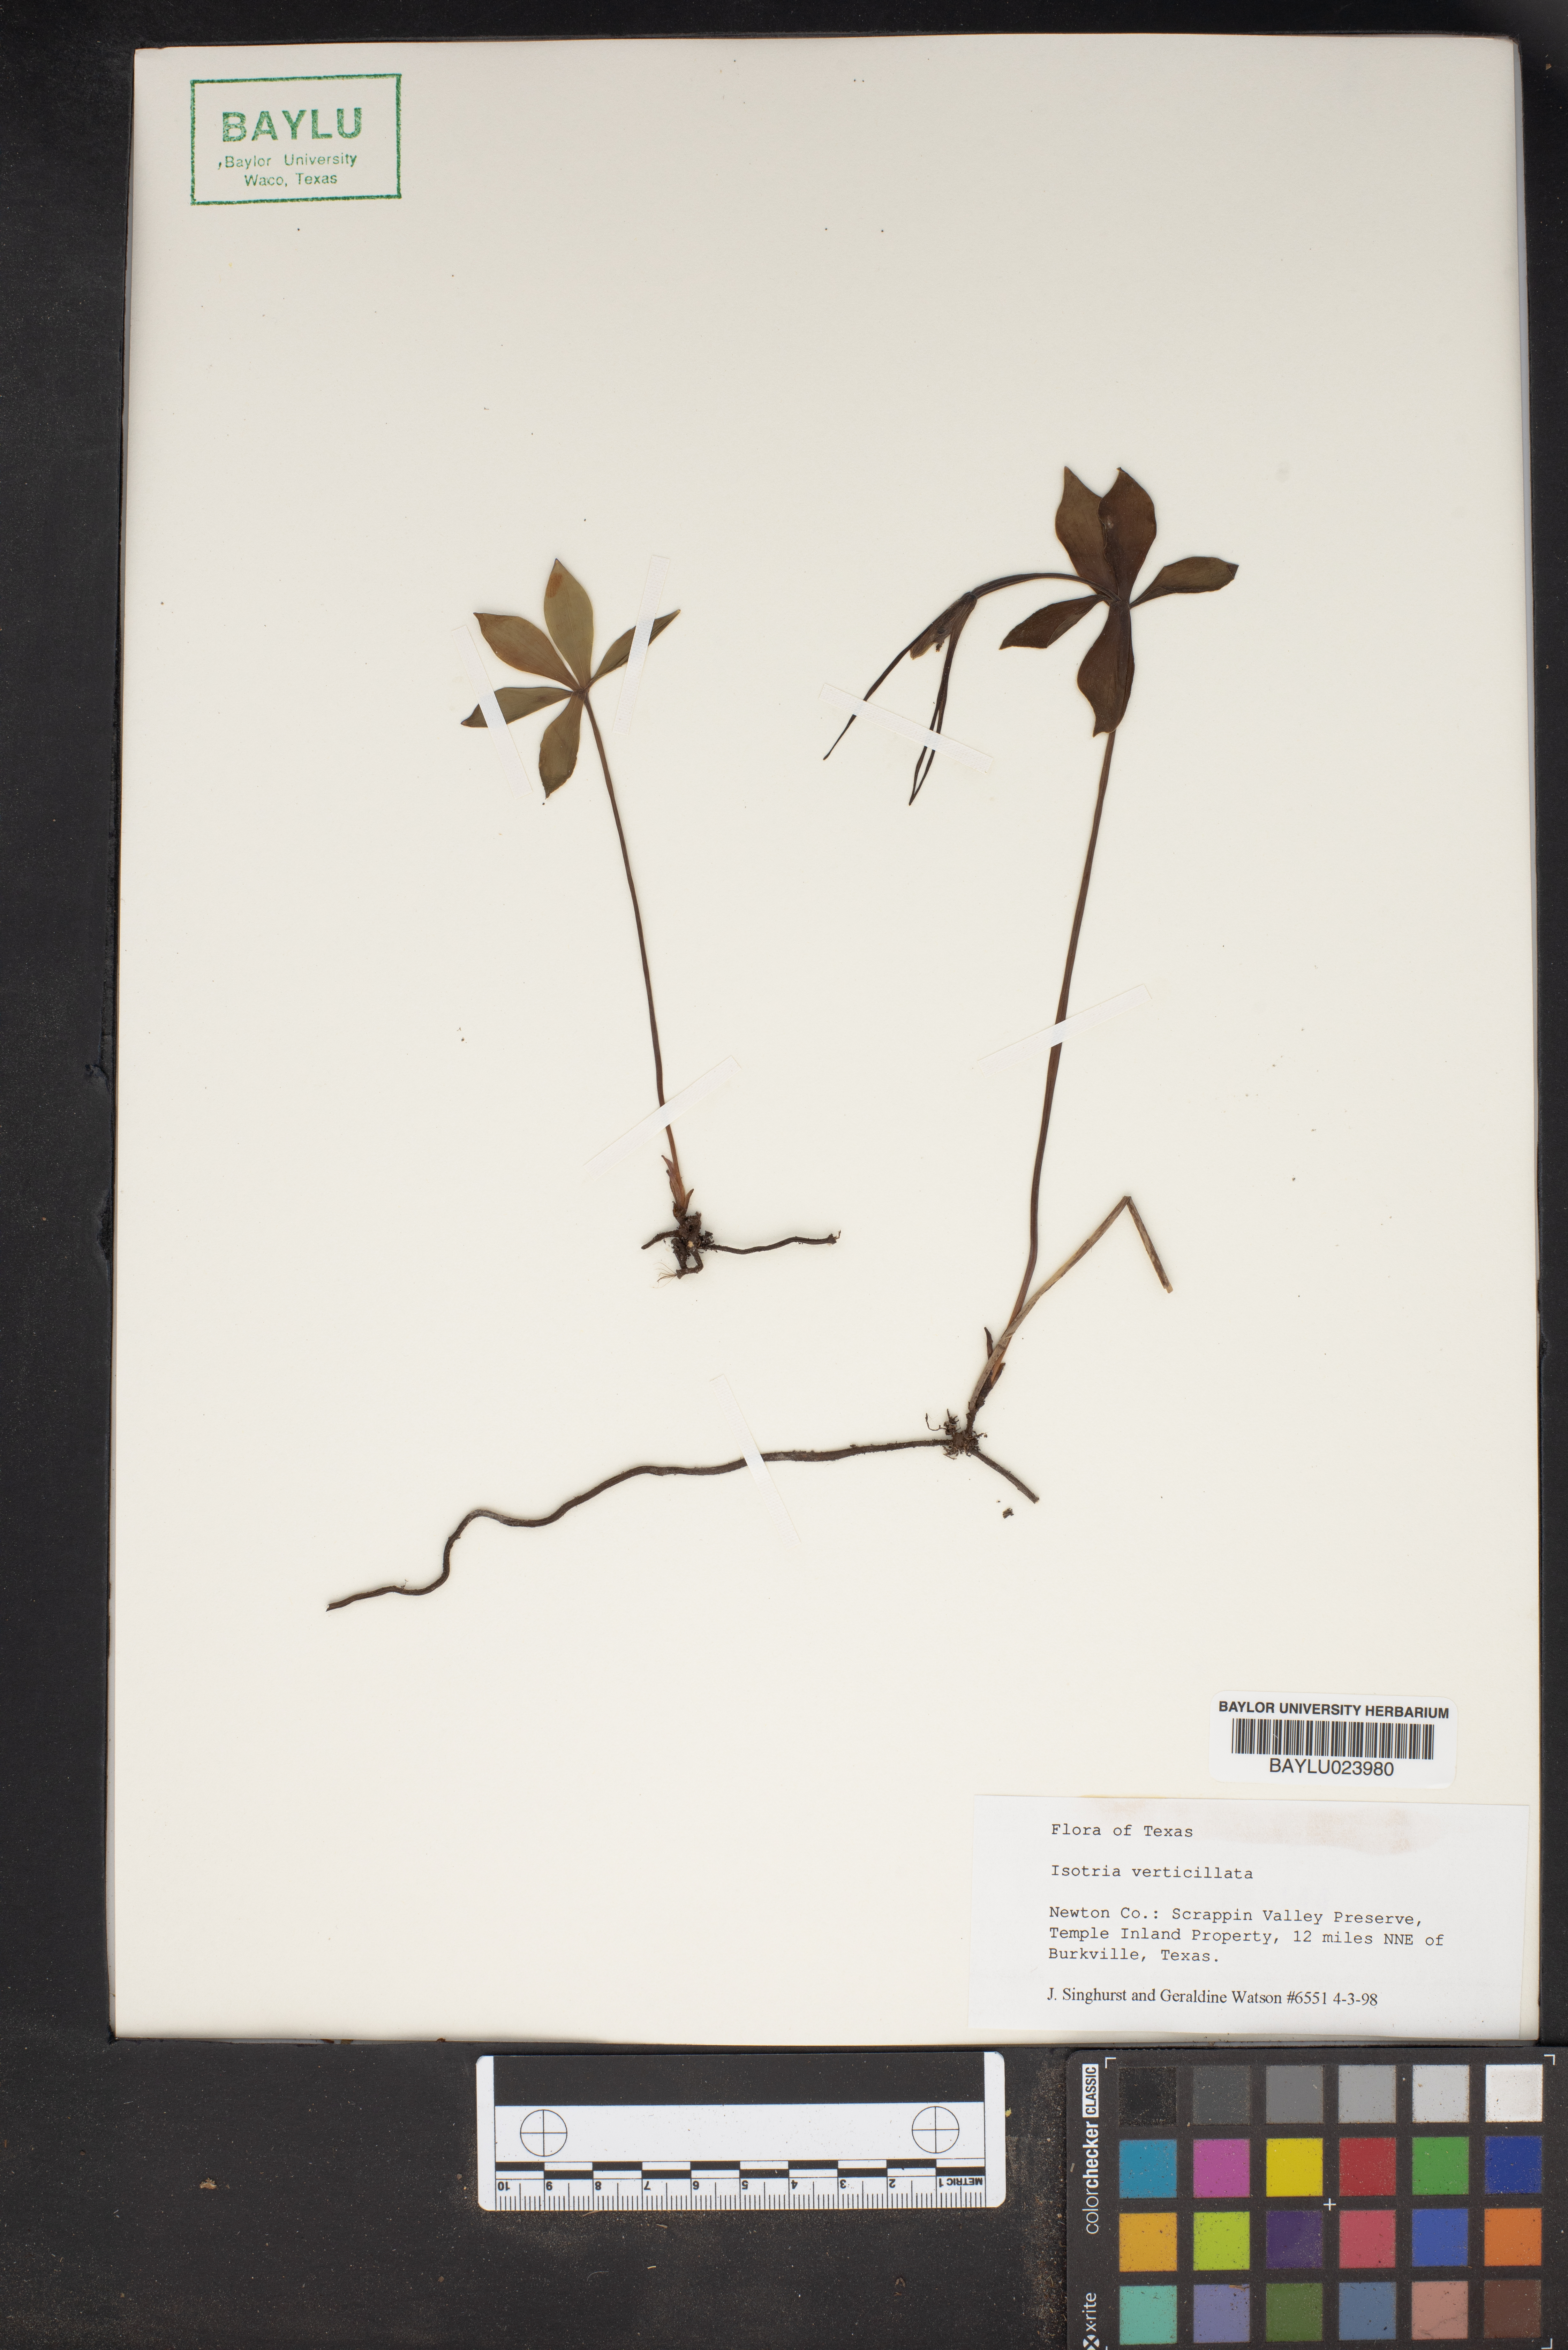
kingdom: Plantae
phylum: Tracheophyta
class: Liliopsida
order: Asparagales
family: Orchidaceae
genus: Isotria
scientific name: Isotria verticillata
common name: Large whorled pogonia
